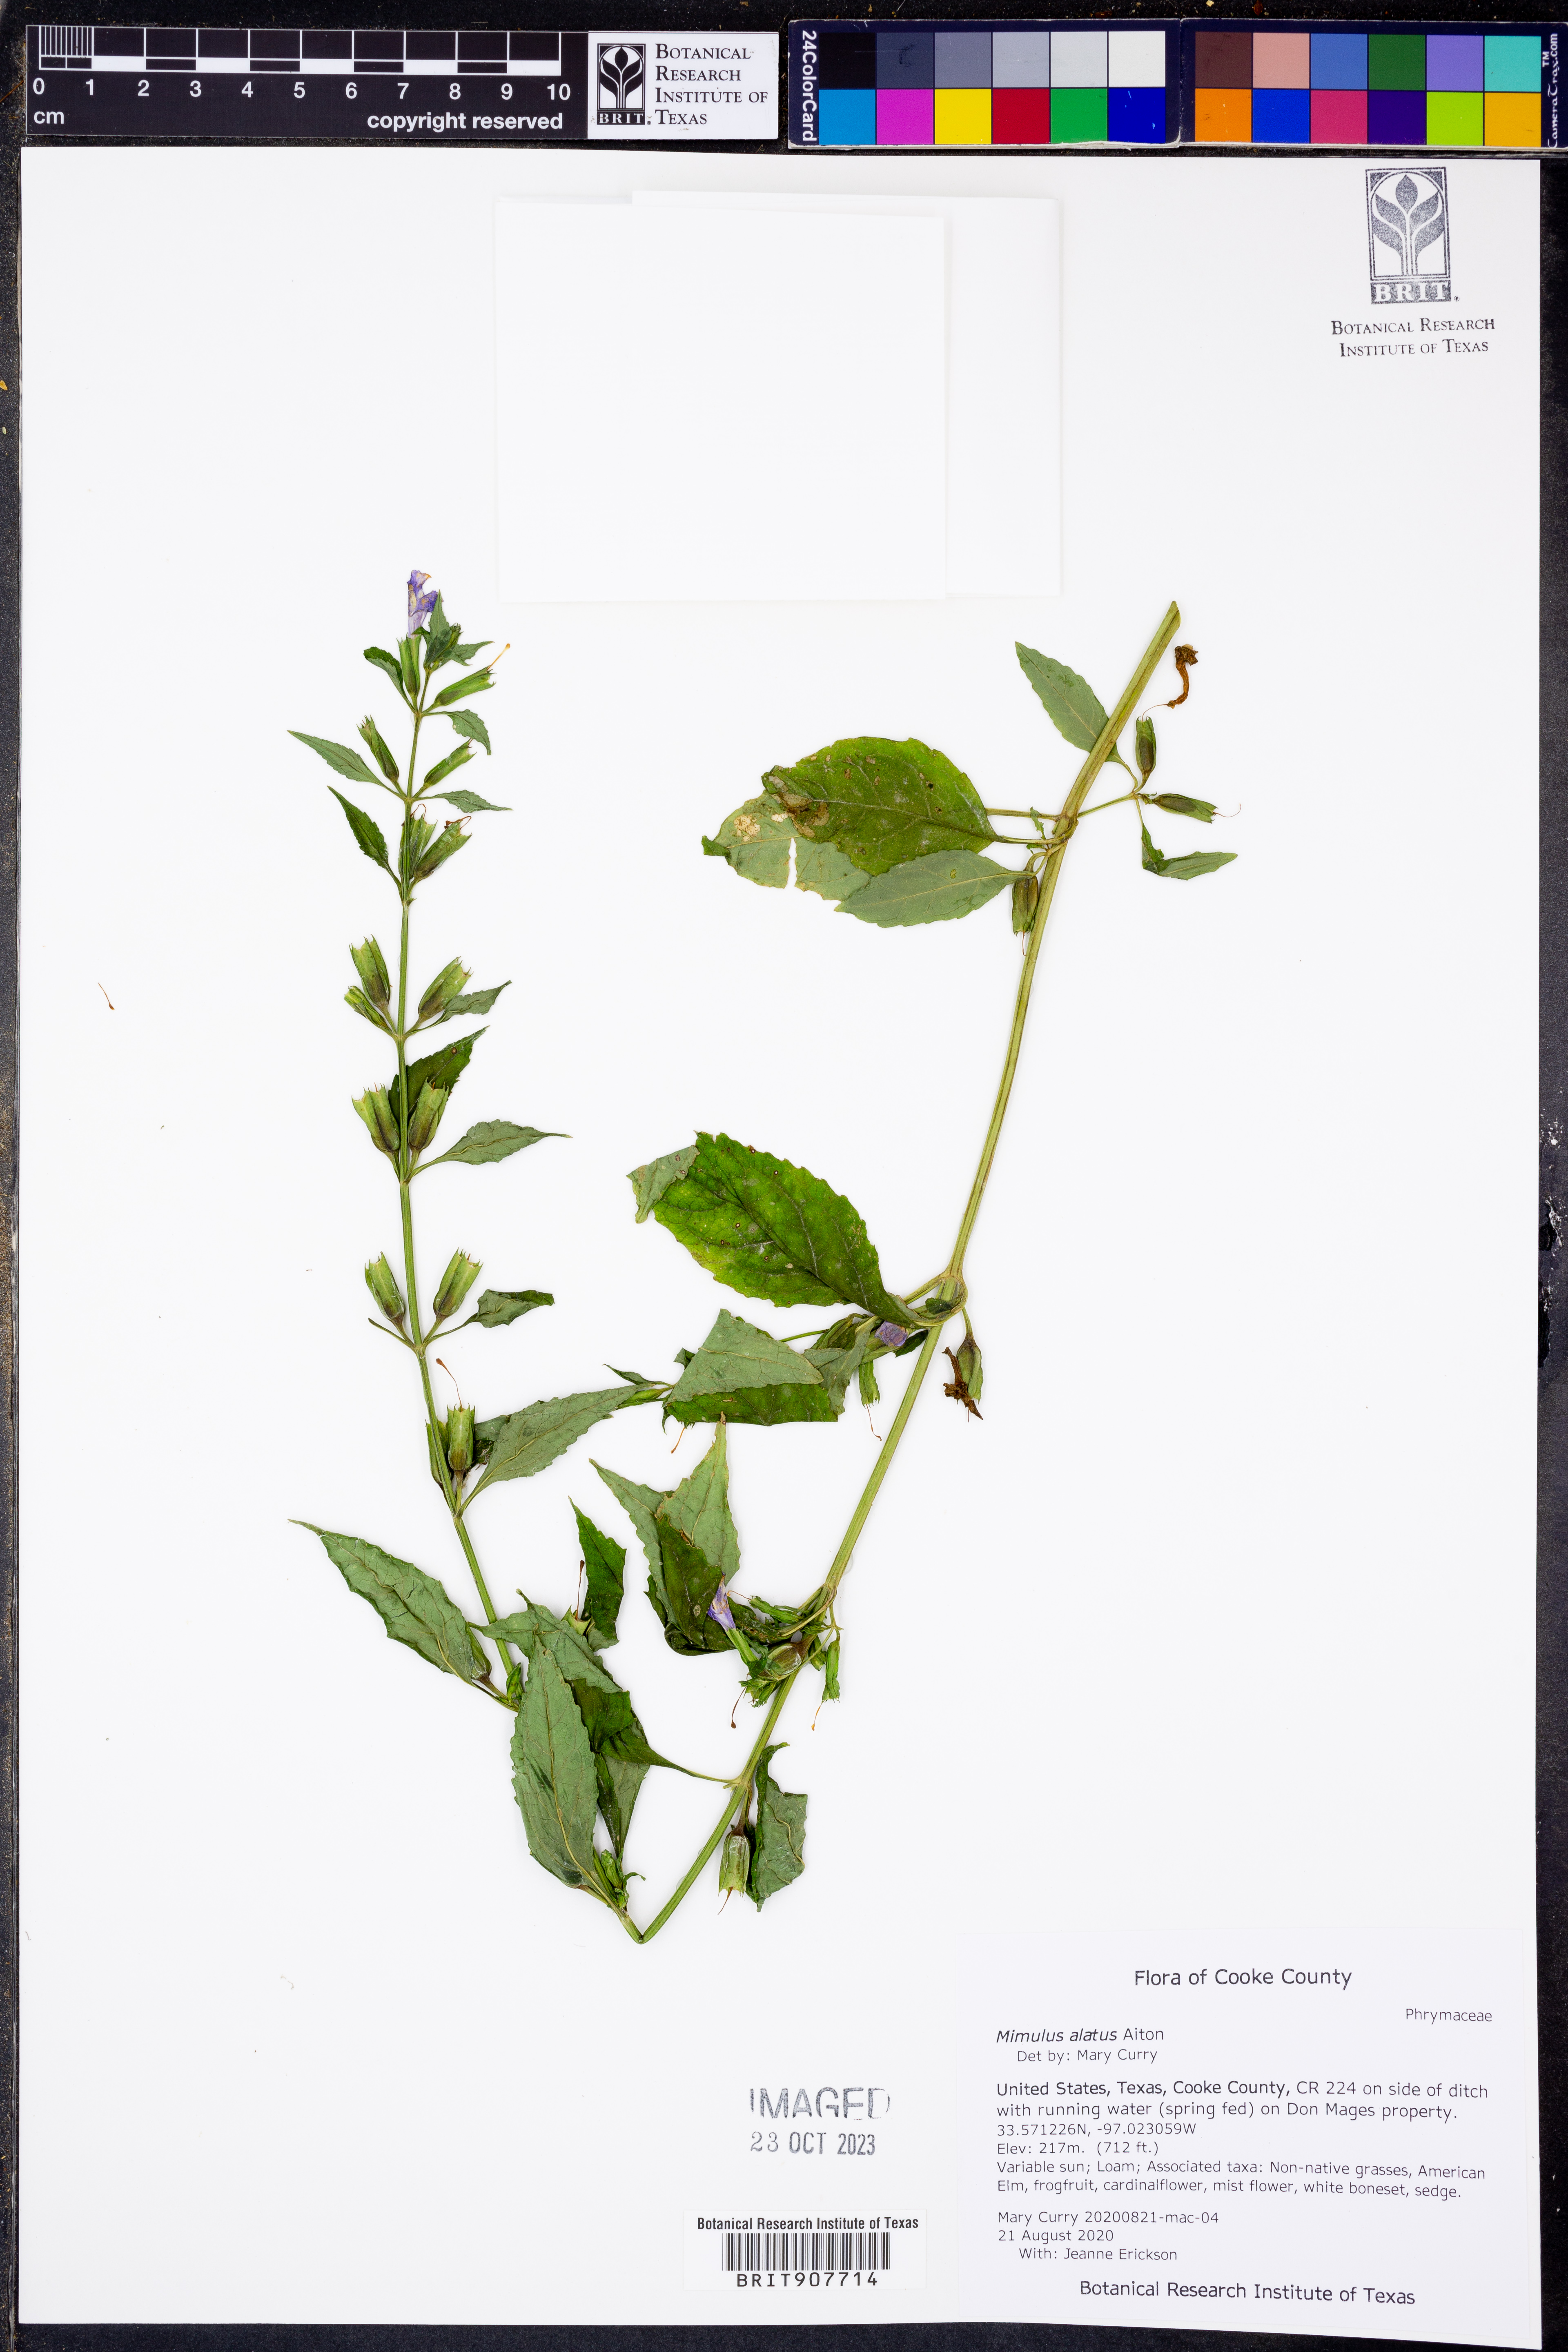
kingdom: Plantae
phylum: Tracheophyta
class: Magnoliopsida
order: Lamiales
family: Phrymaceae
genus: Mimulus
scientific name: Mimulus alatus
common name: Sharp-wing monkey-flower
